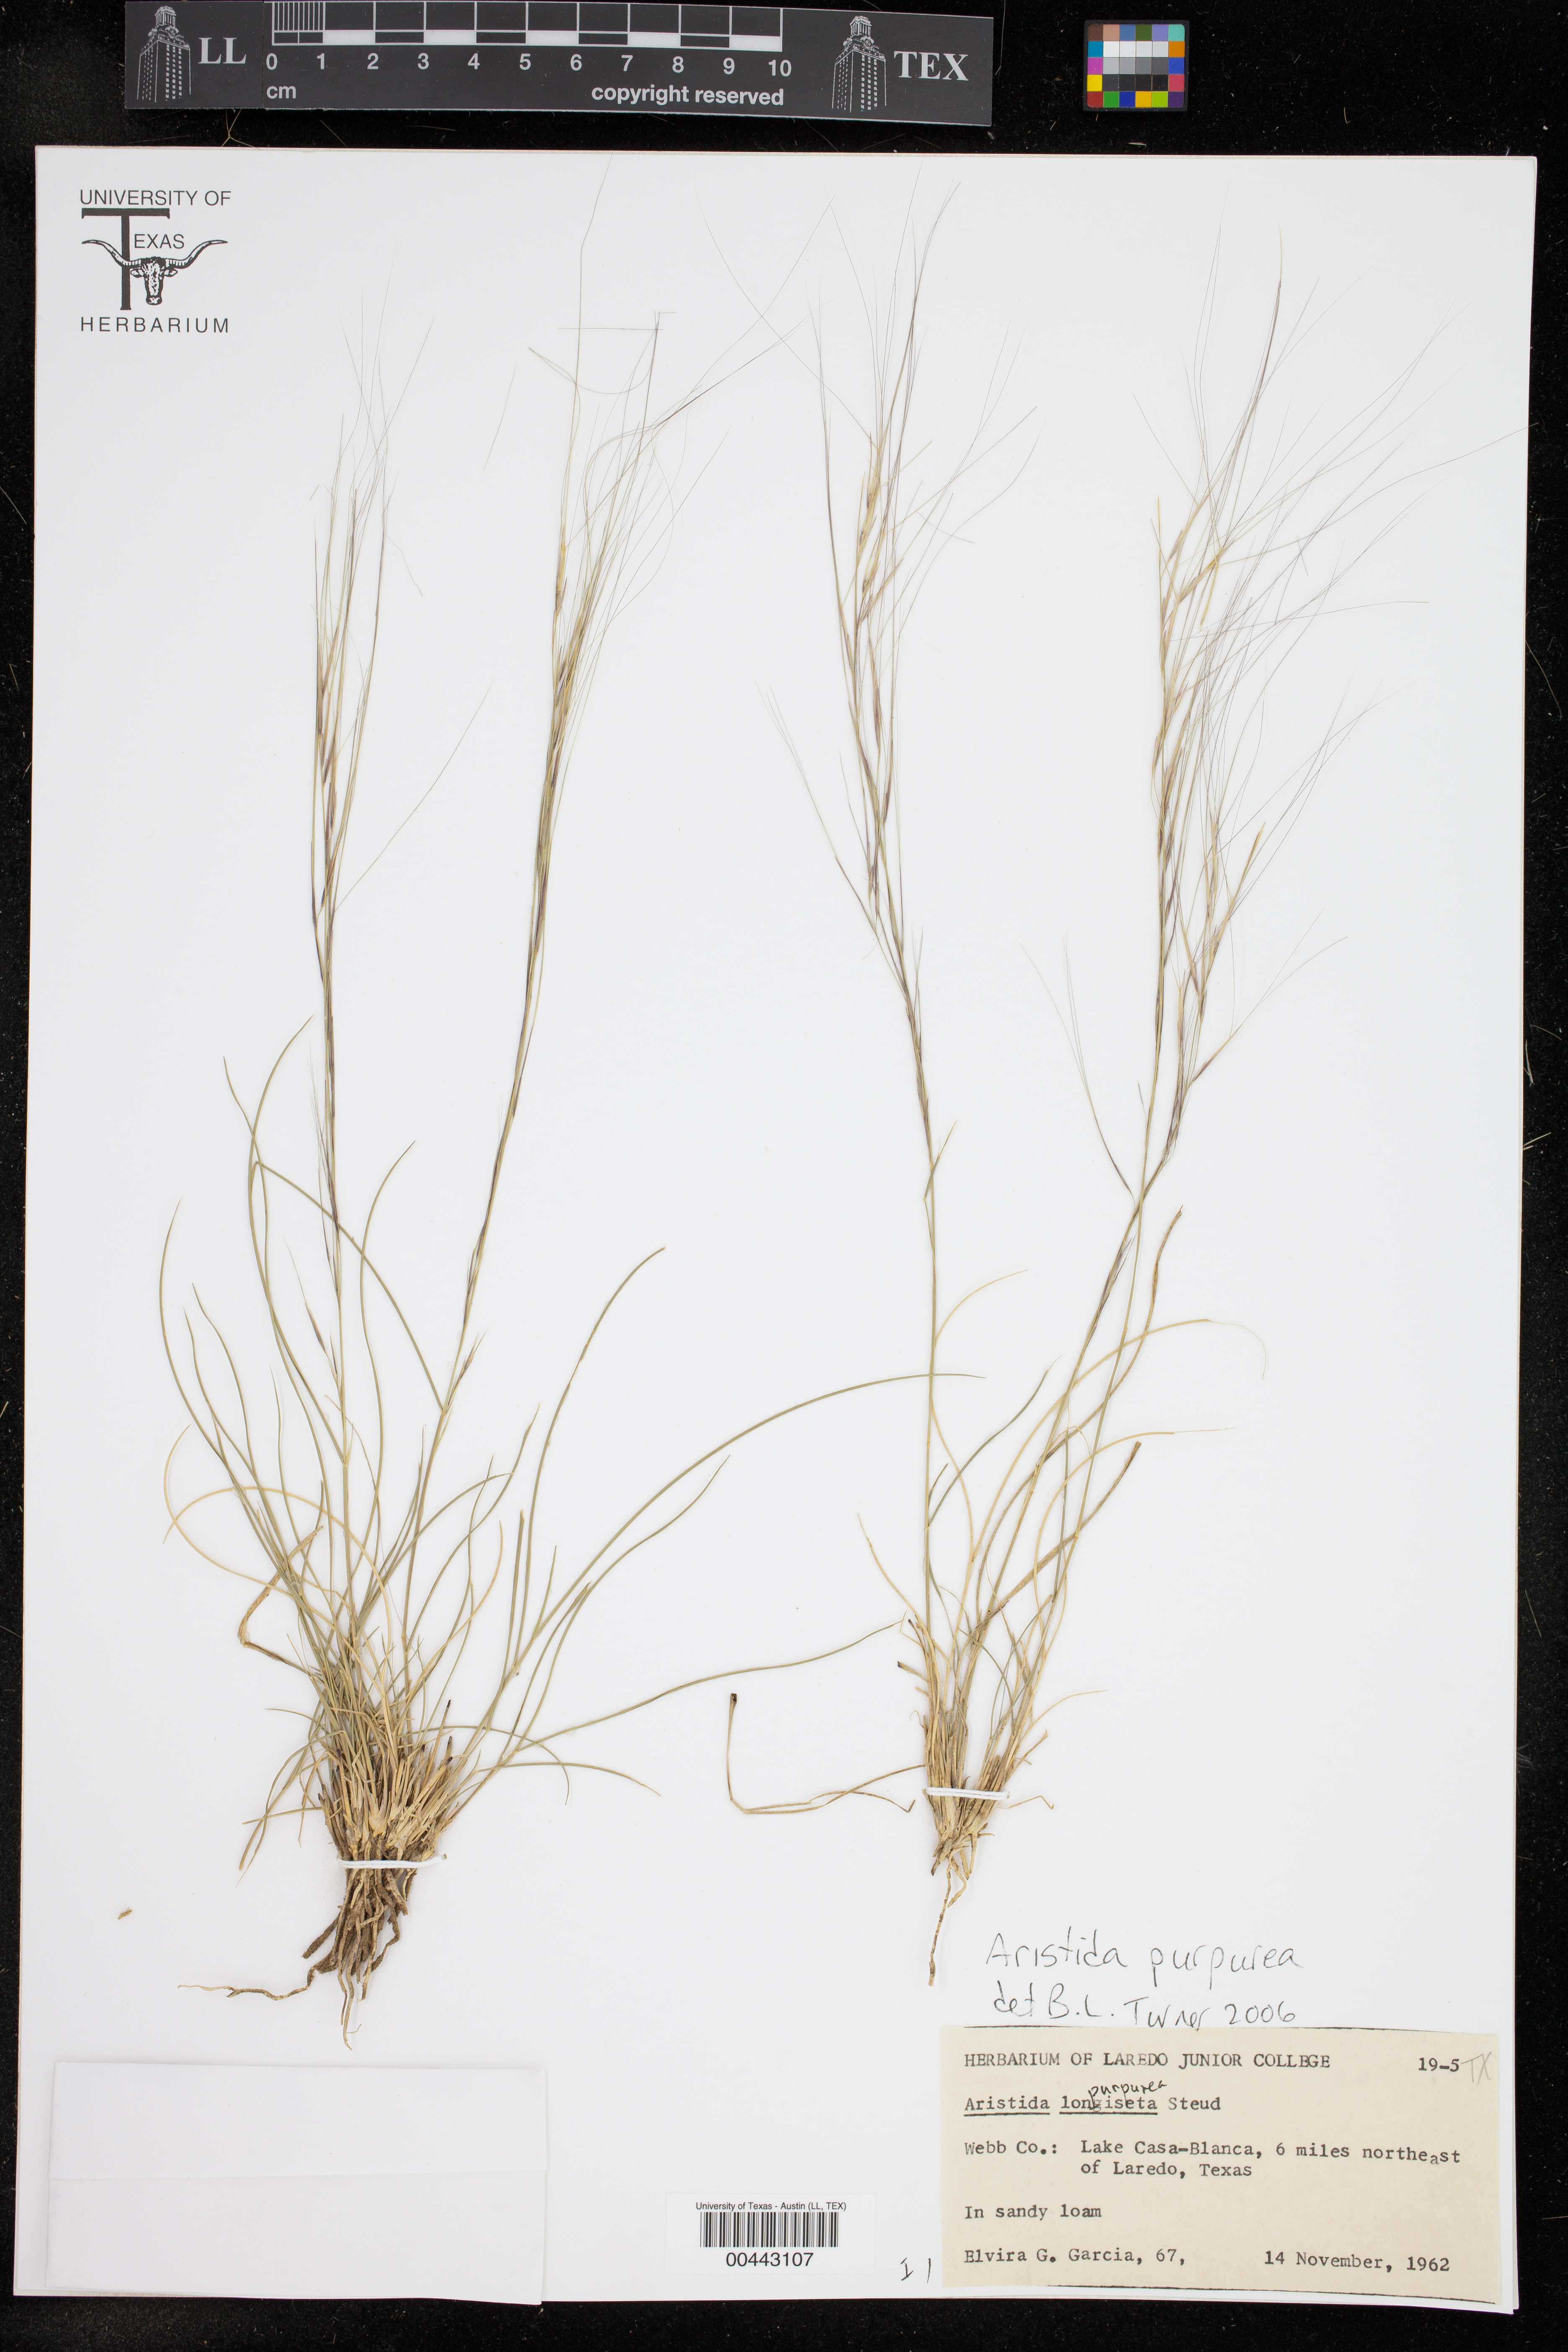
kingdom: Plantae
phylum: Tracheophyta
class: Liliopsida
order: Poales
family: Poaceae
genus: Aristida
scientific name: Aristida purpurea
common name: Purple threeawn
